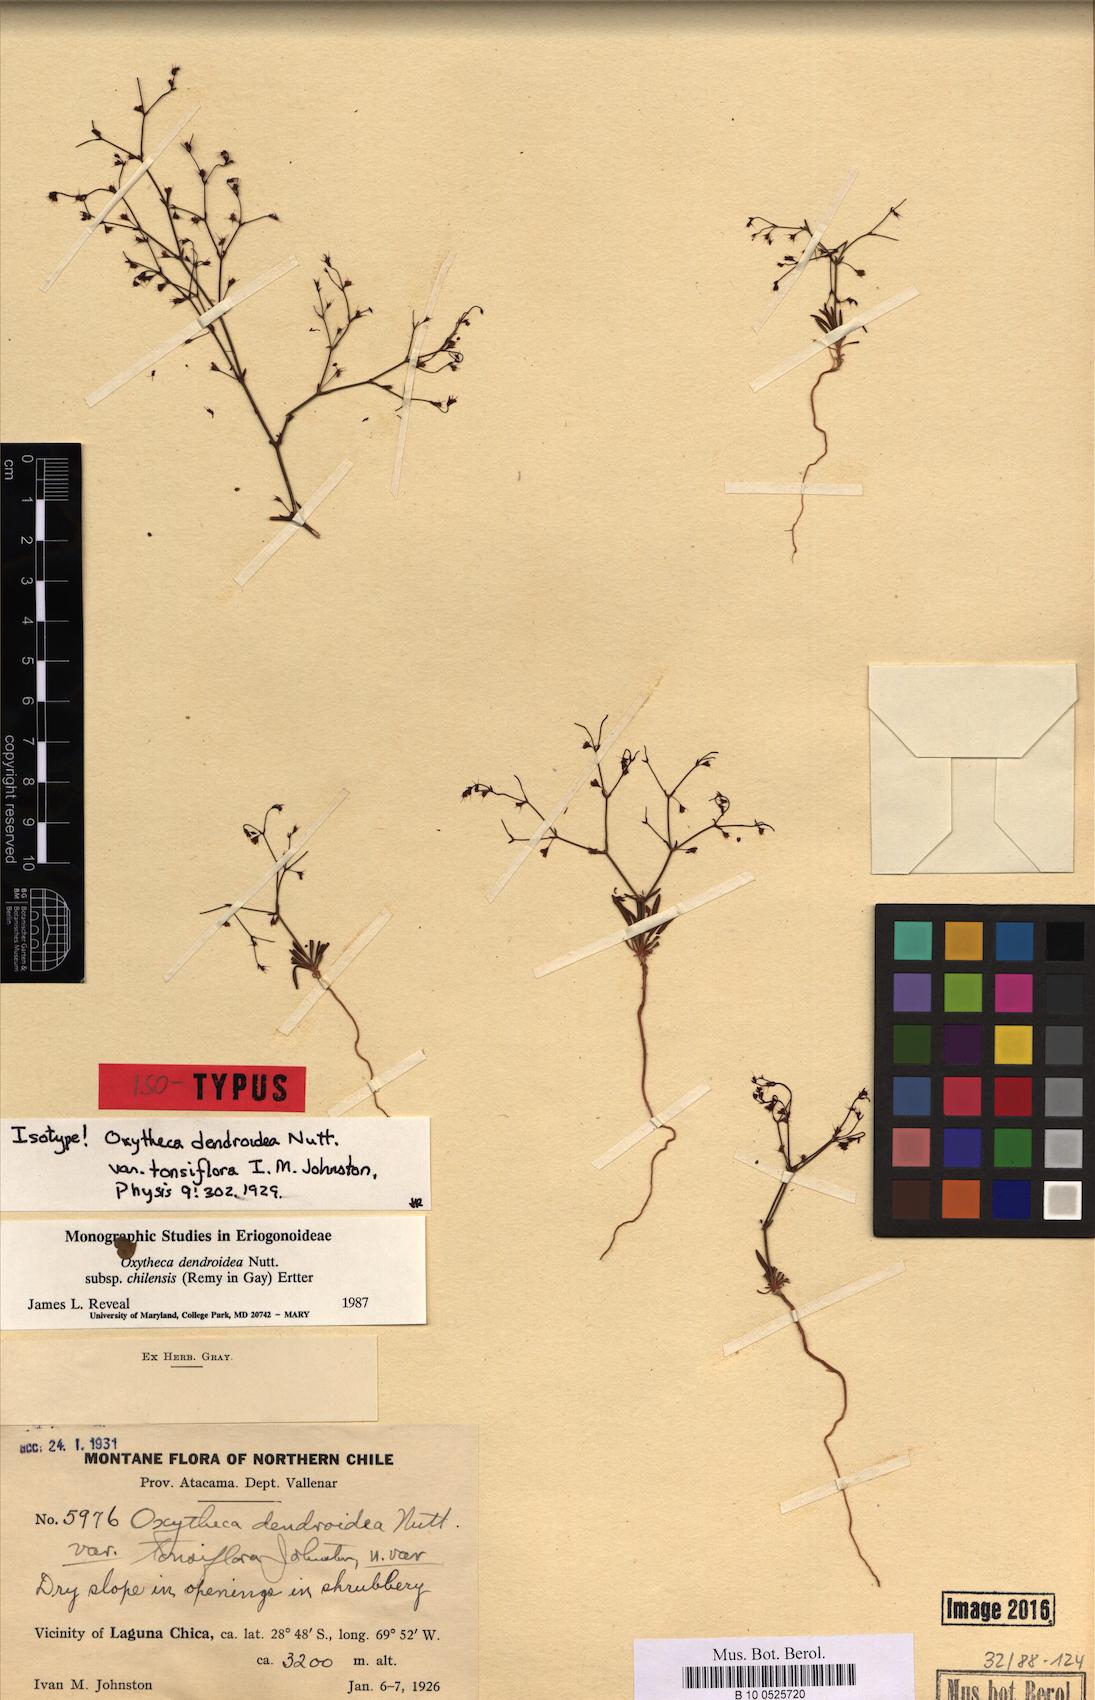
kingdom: Plantae
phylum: Tracheophyta
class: Magnoliopsida
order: Caryophyllales
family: Polygonaceae
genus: Oxytheca
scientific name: Oxytheca dendroidea
